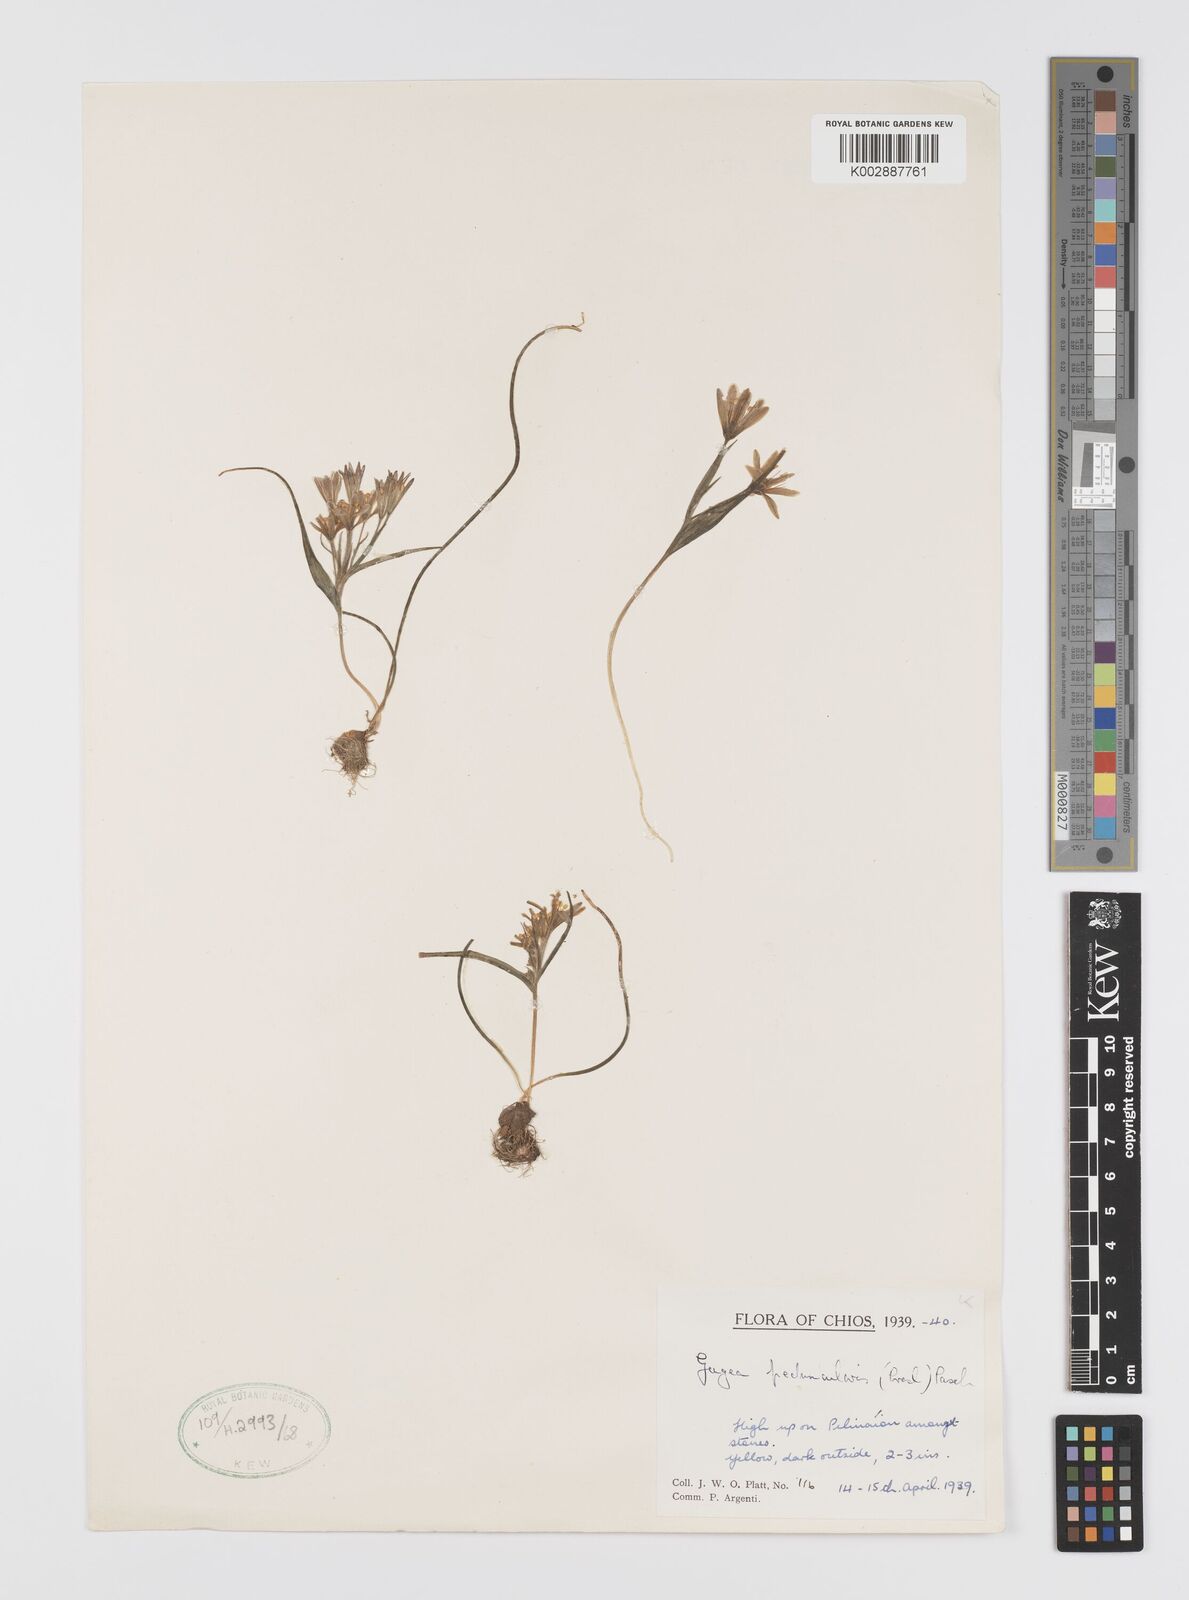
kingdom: Plantae
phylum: Tracheophyta
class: Liliopsida
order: Liliales
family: Liliaceae
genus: Gagea
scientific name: Gagea minima
